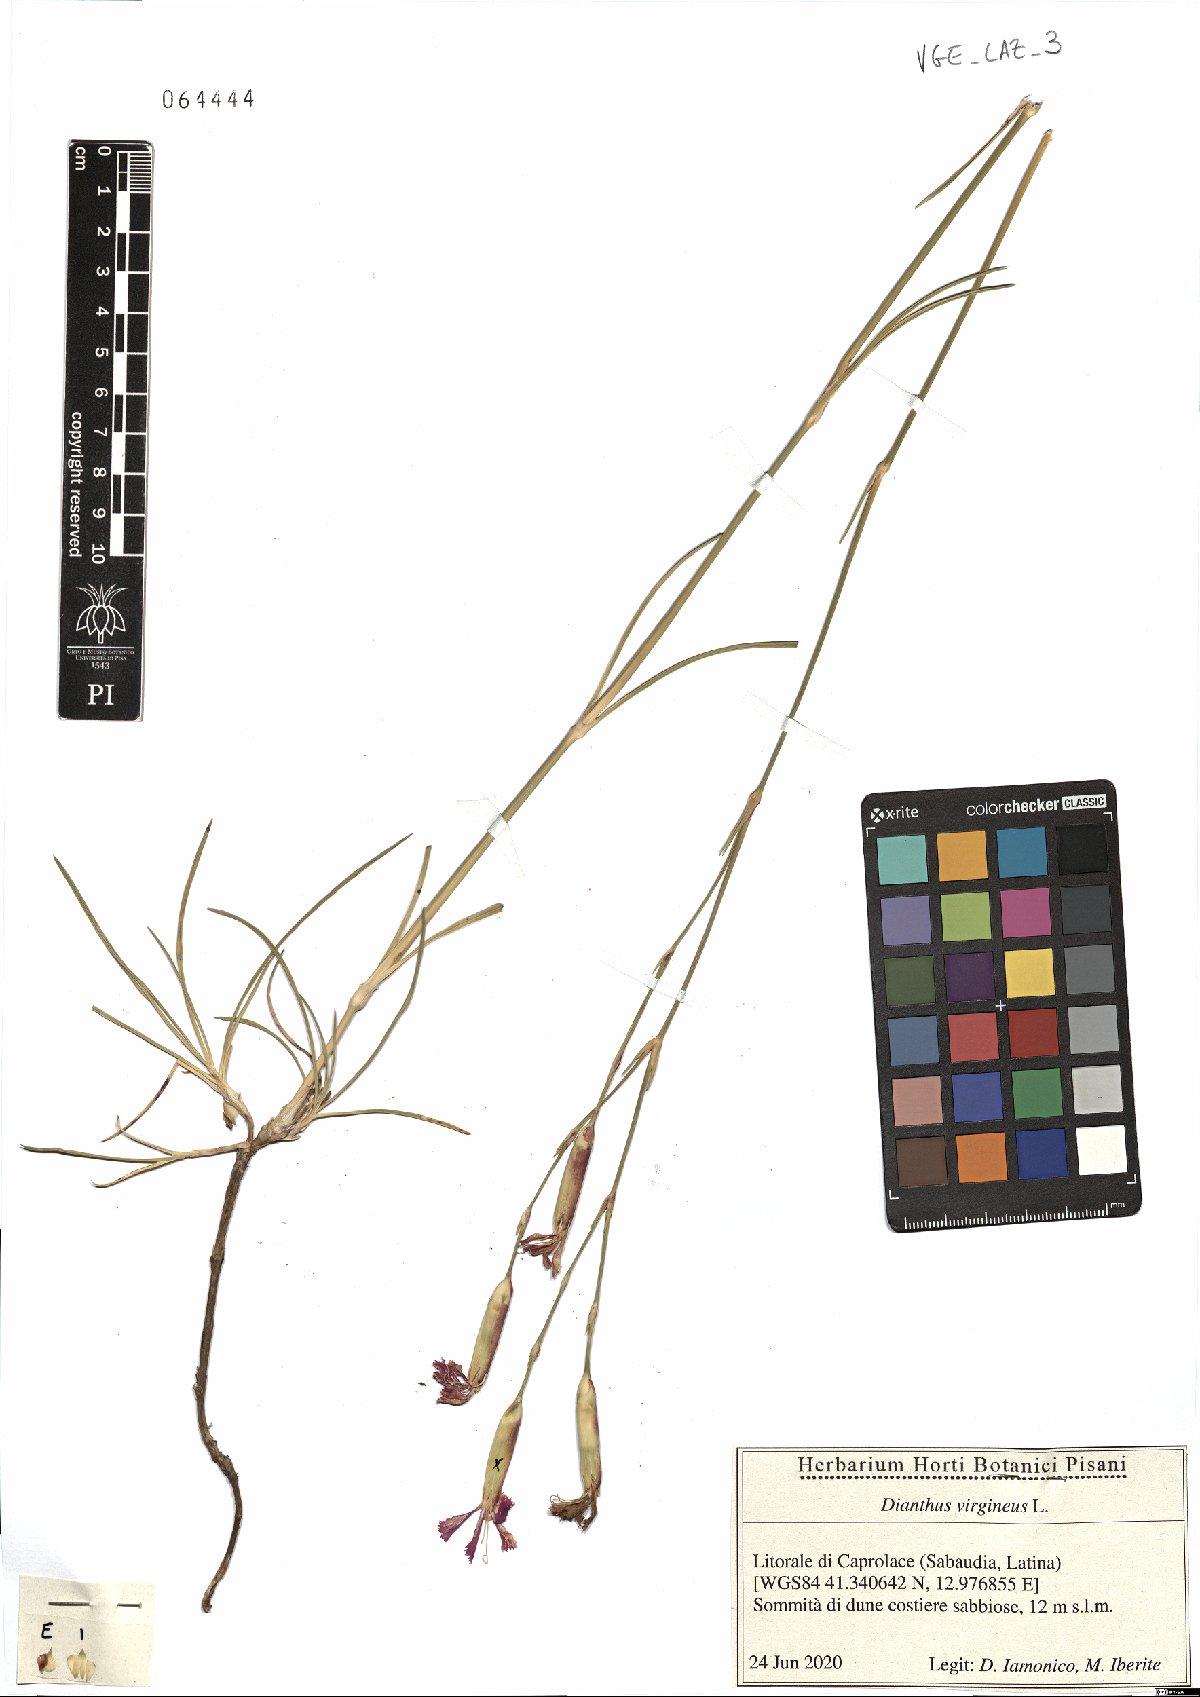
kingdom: Plantae
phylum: Tracheophyta
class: Magnoliopsida
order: Caryophyllales
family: Caryophyllaceae
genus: Dianthus
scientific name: Dianthus virgineus
